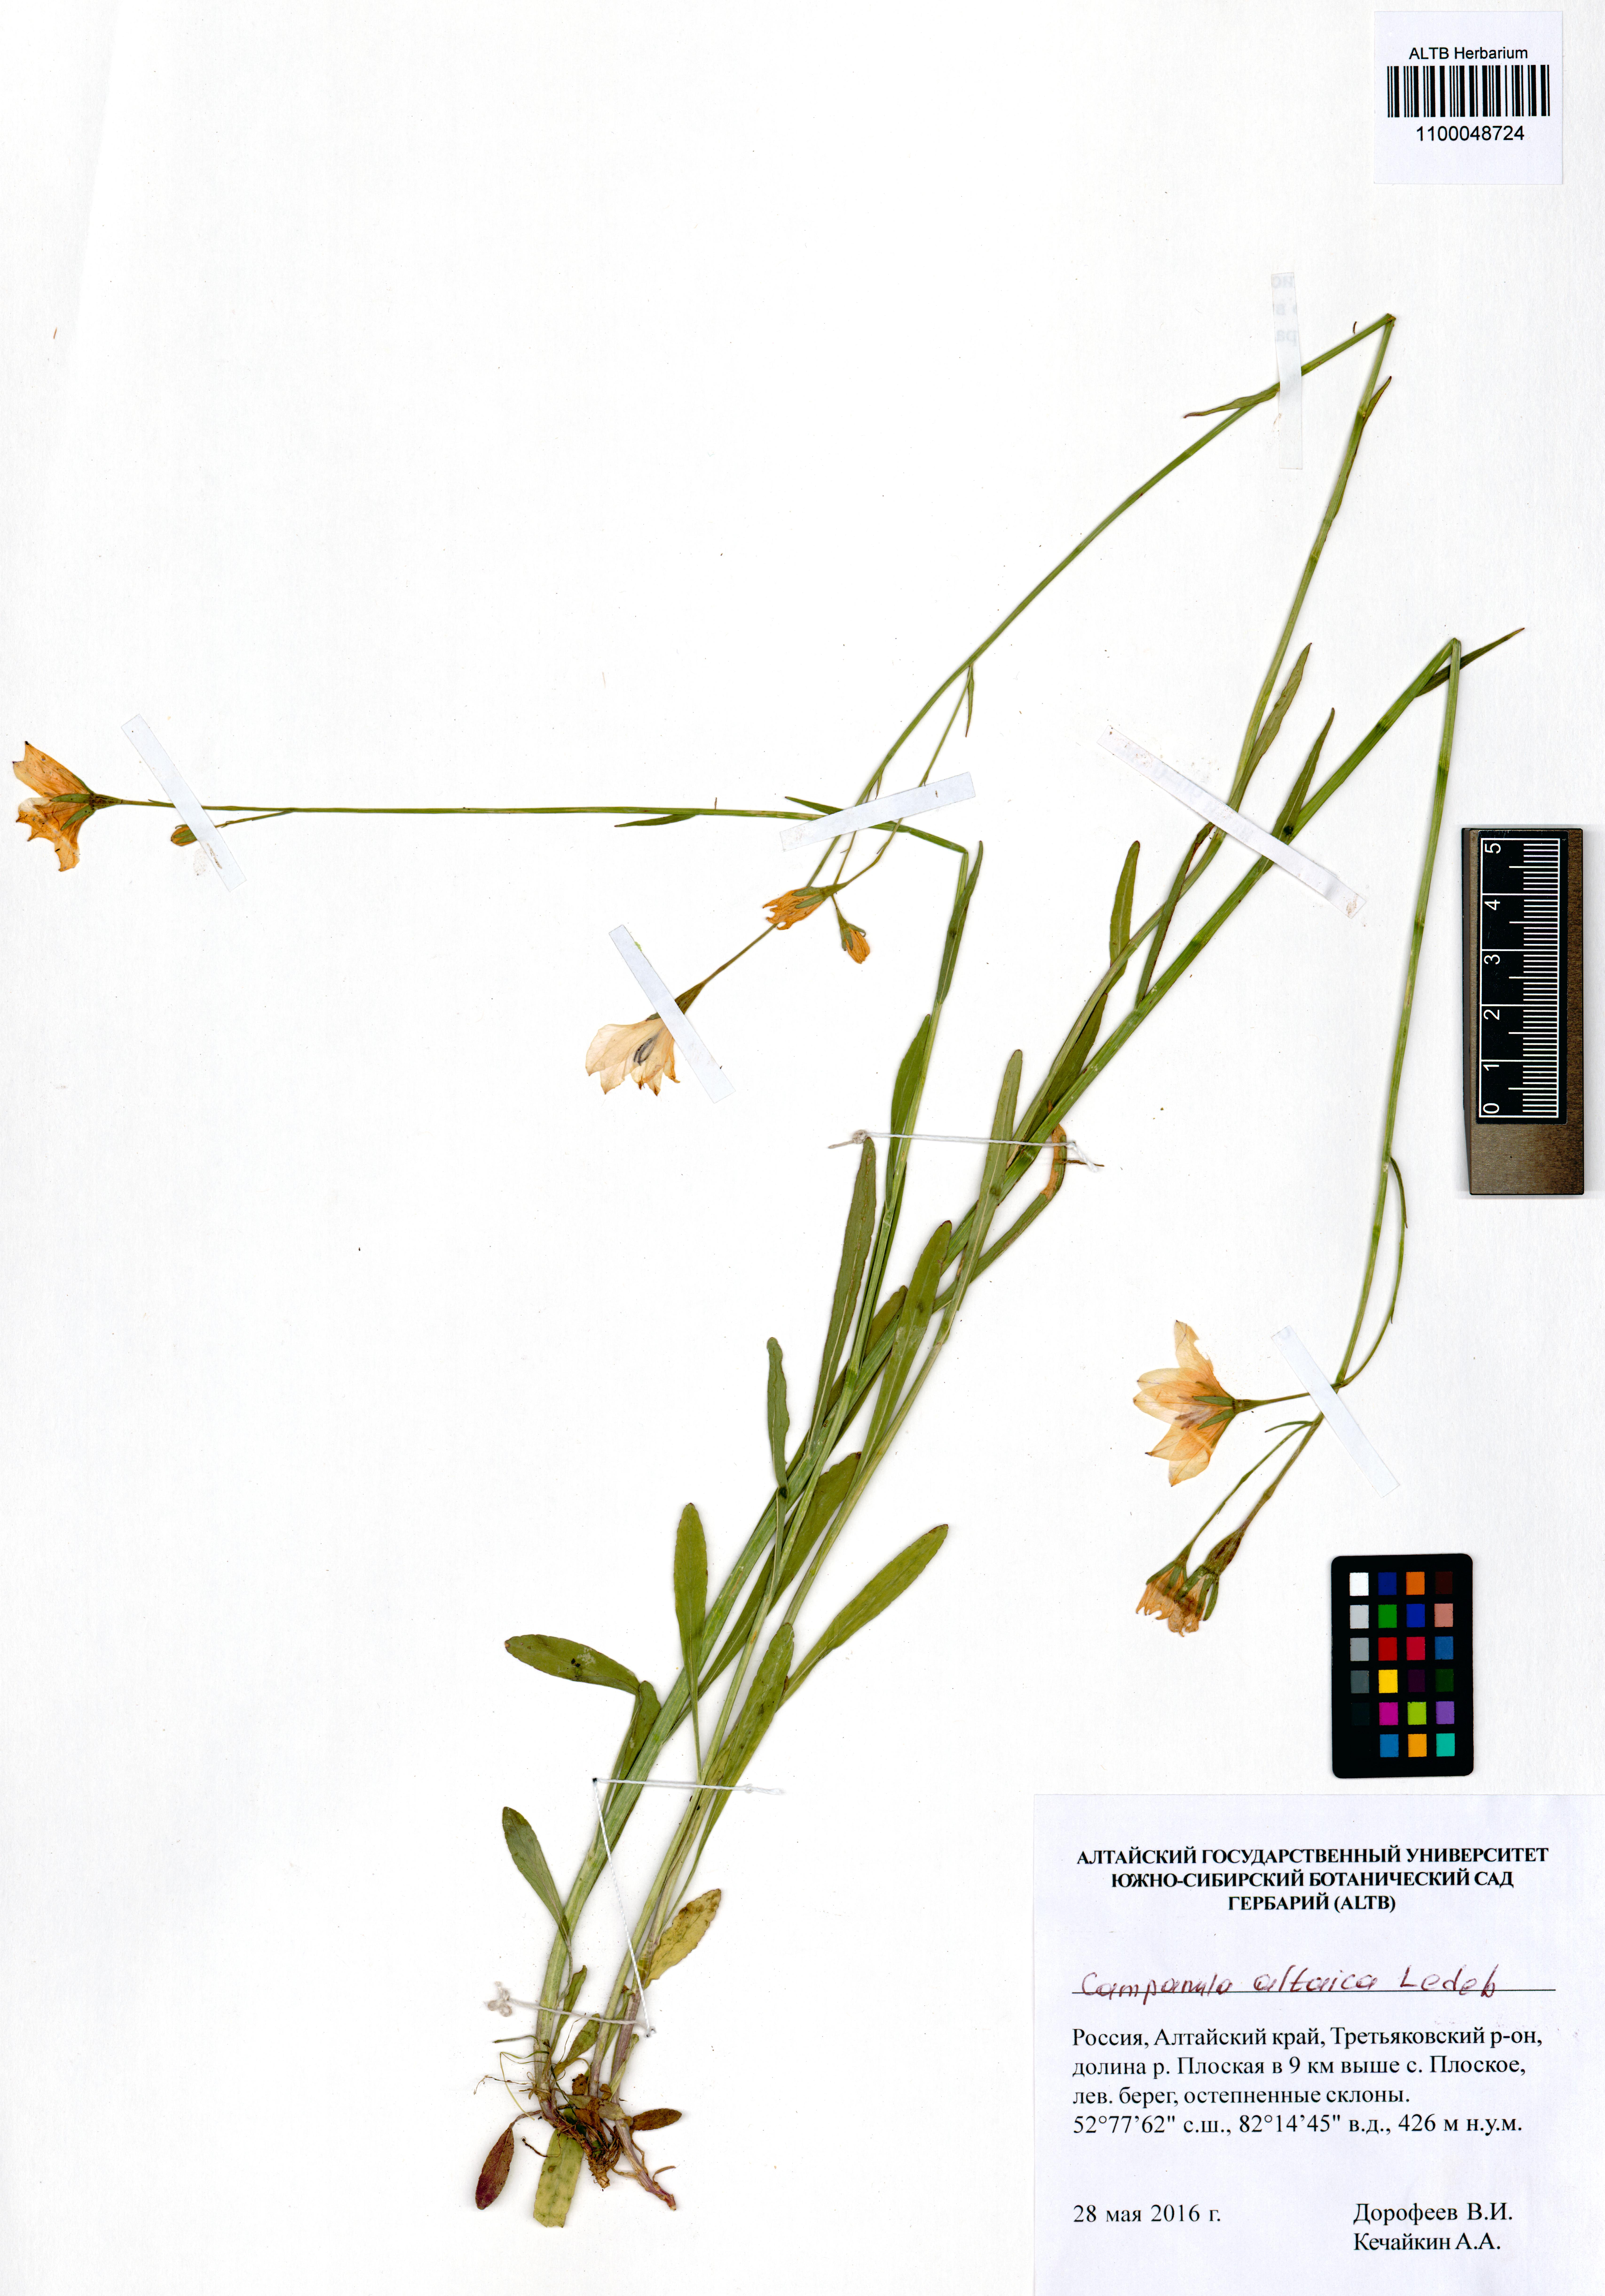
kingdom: Plantae
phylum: Tracheophyta
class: Magnoliopsida
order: Asterales
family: Campanulaceae
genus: Campanula
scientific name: Campanula stevenii
